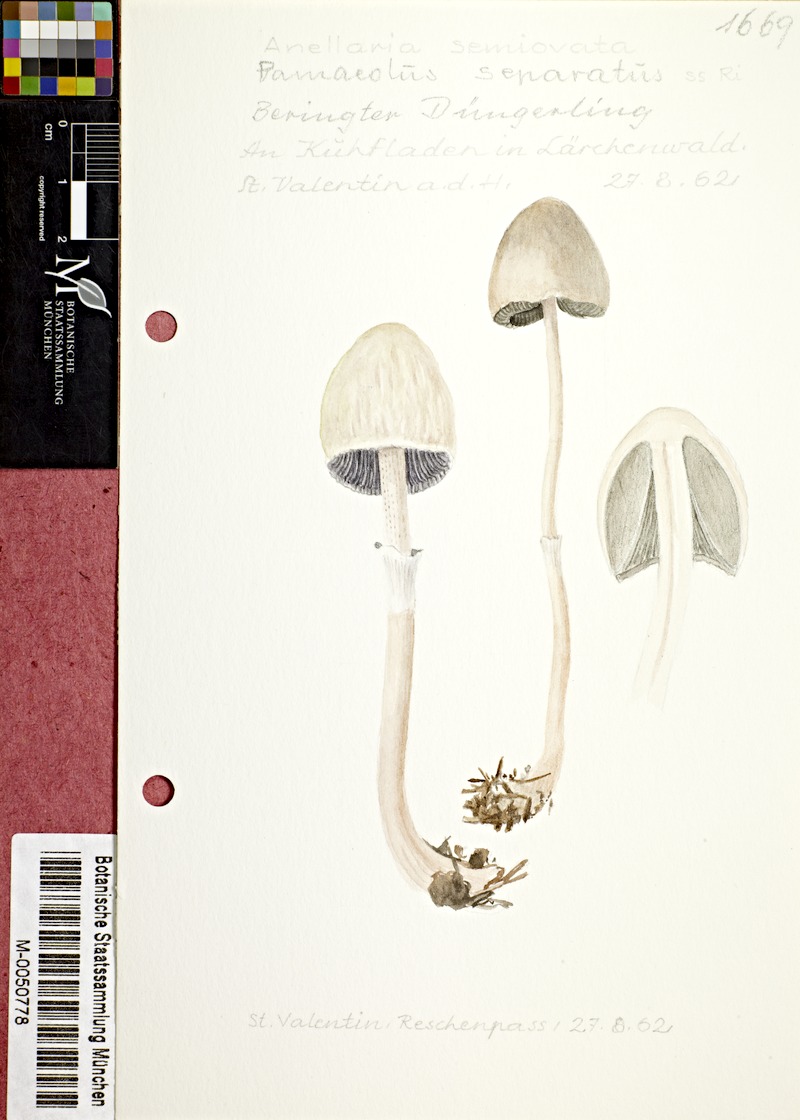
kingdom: Fungi
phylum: Basidiomycota
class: Agaricomycetes
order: Agaricales
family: Bolbitiaceae
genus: Panaeolus
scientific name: Panaeolus semiovatus
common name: Shiny mottlegill
